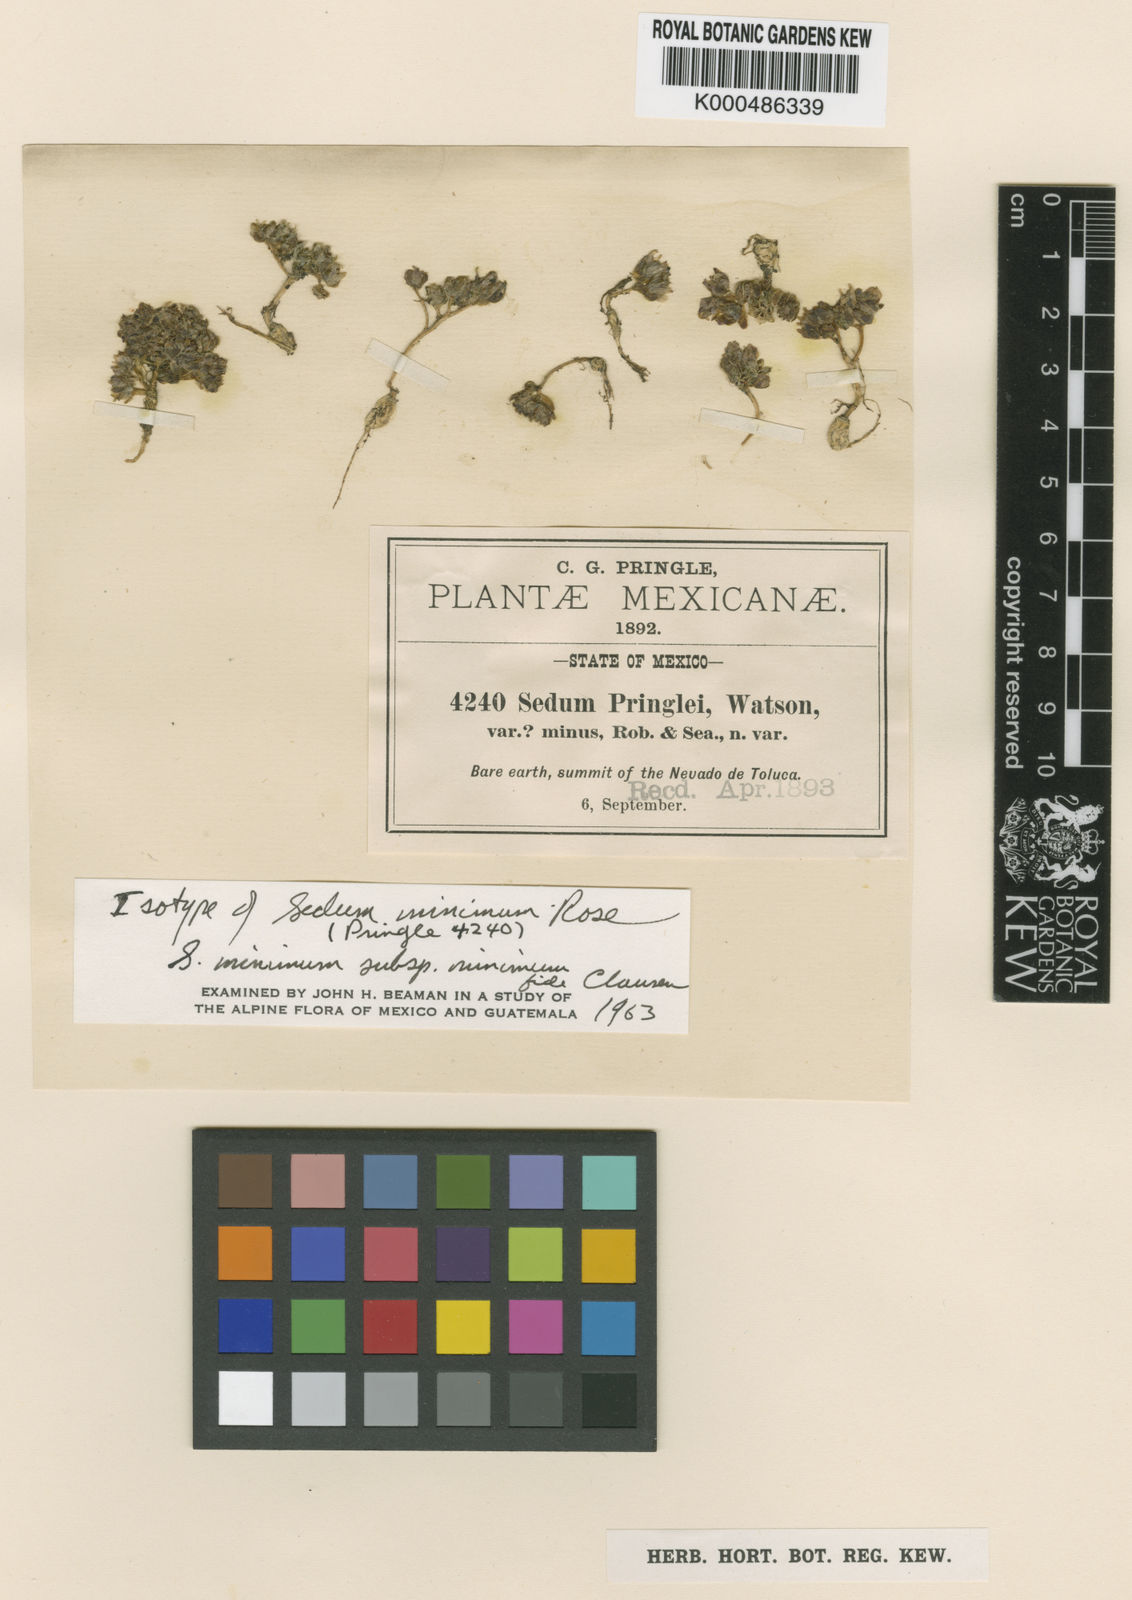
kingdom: Plantae
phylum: Tracheophyta
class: Magnoliopsida
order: Saxifragales
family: Crassulaceae
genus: Sedum
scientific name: Sedum minimum
